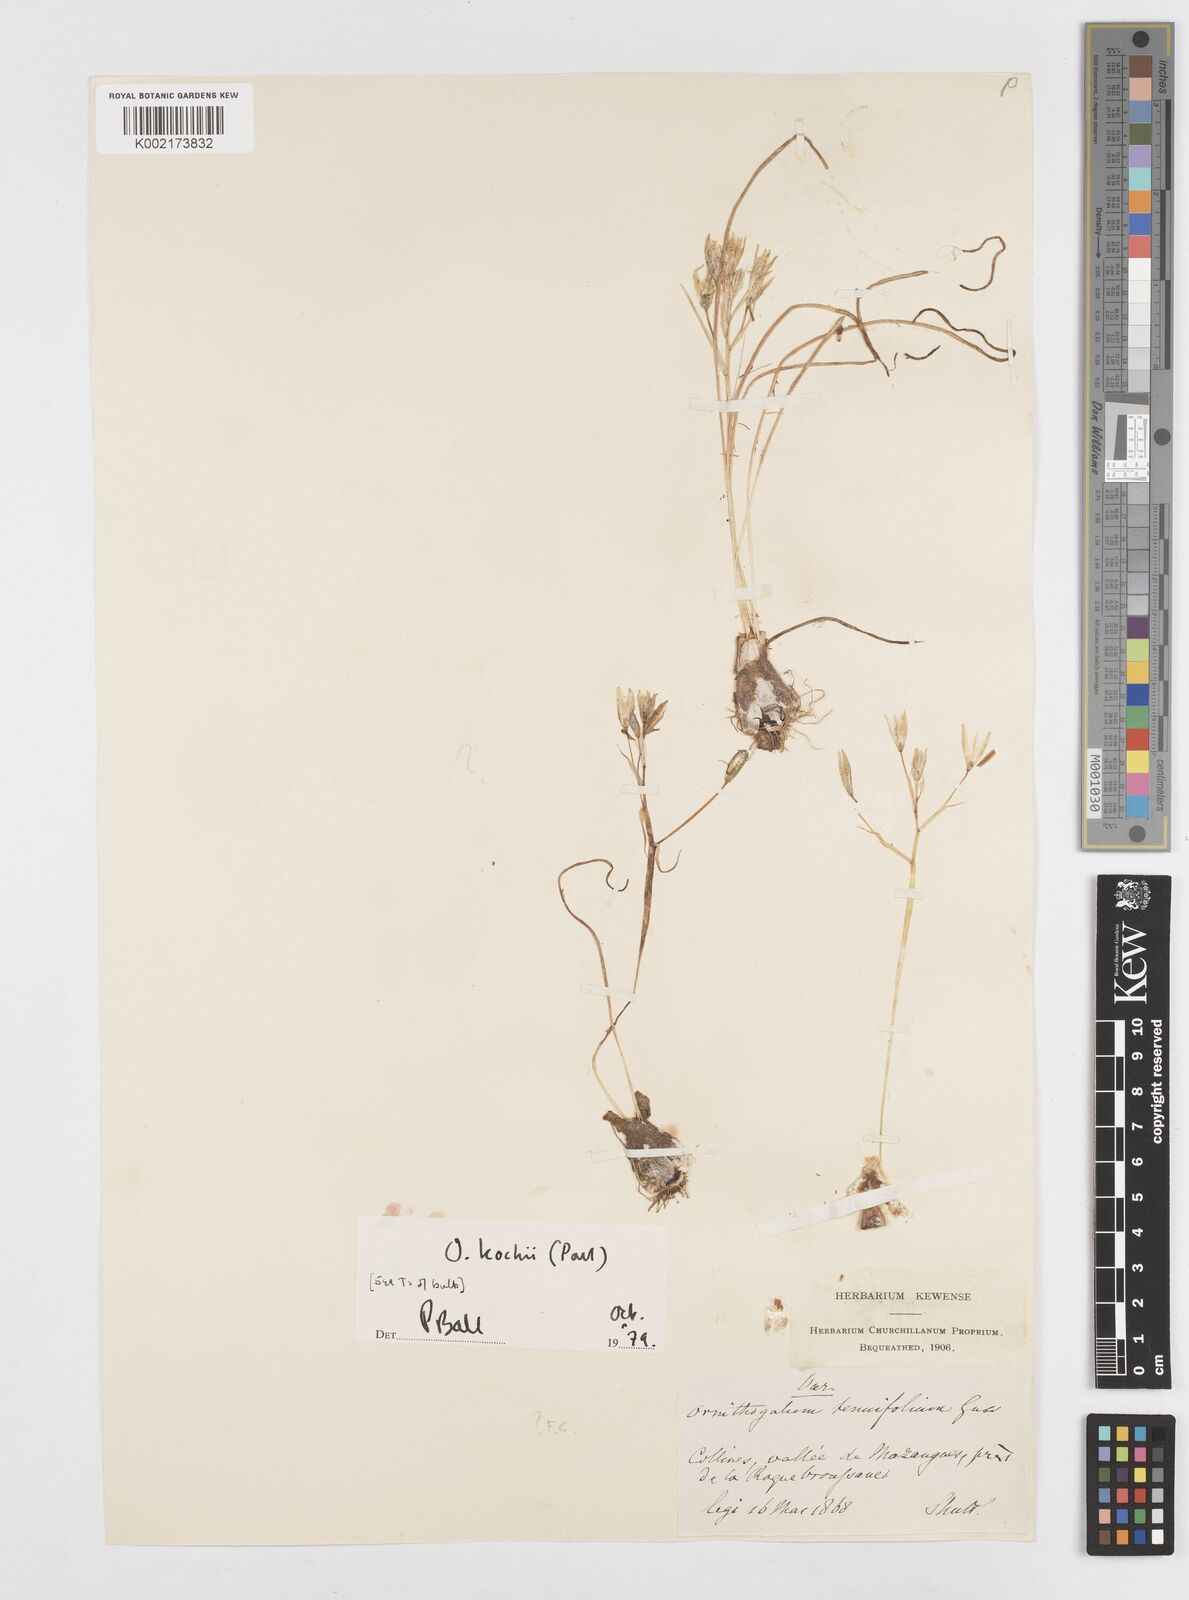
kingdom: Plantae
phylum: Tracheophyta
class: Liliopsida
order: Asparagales
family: Asparagaceae
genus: Ornithogalum
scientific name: Ornithogalum orthophyllum
